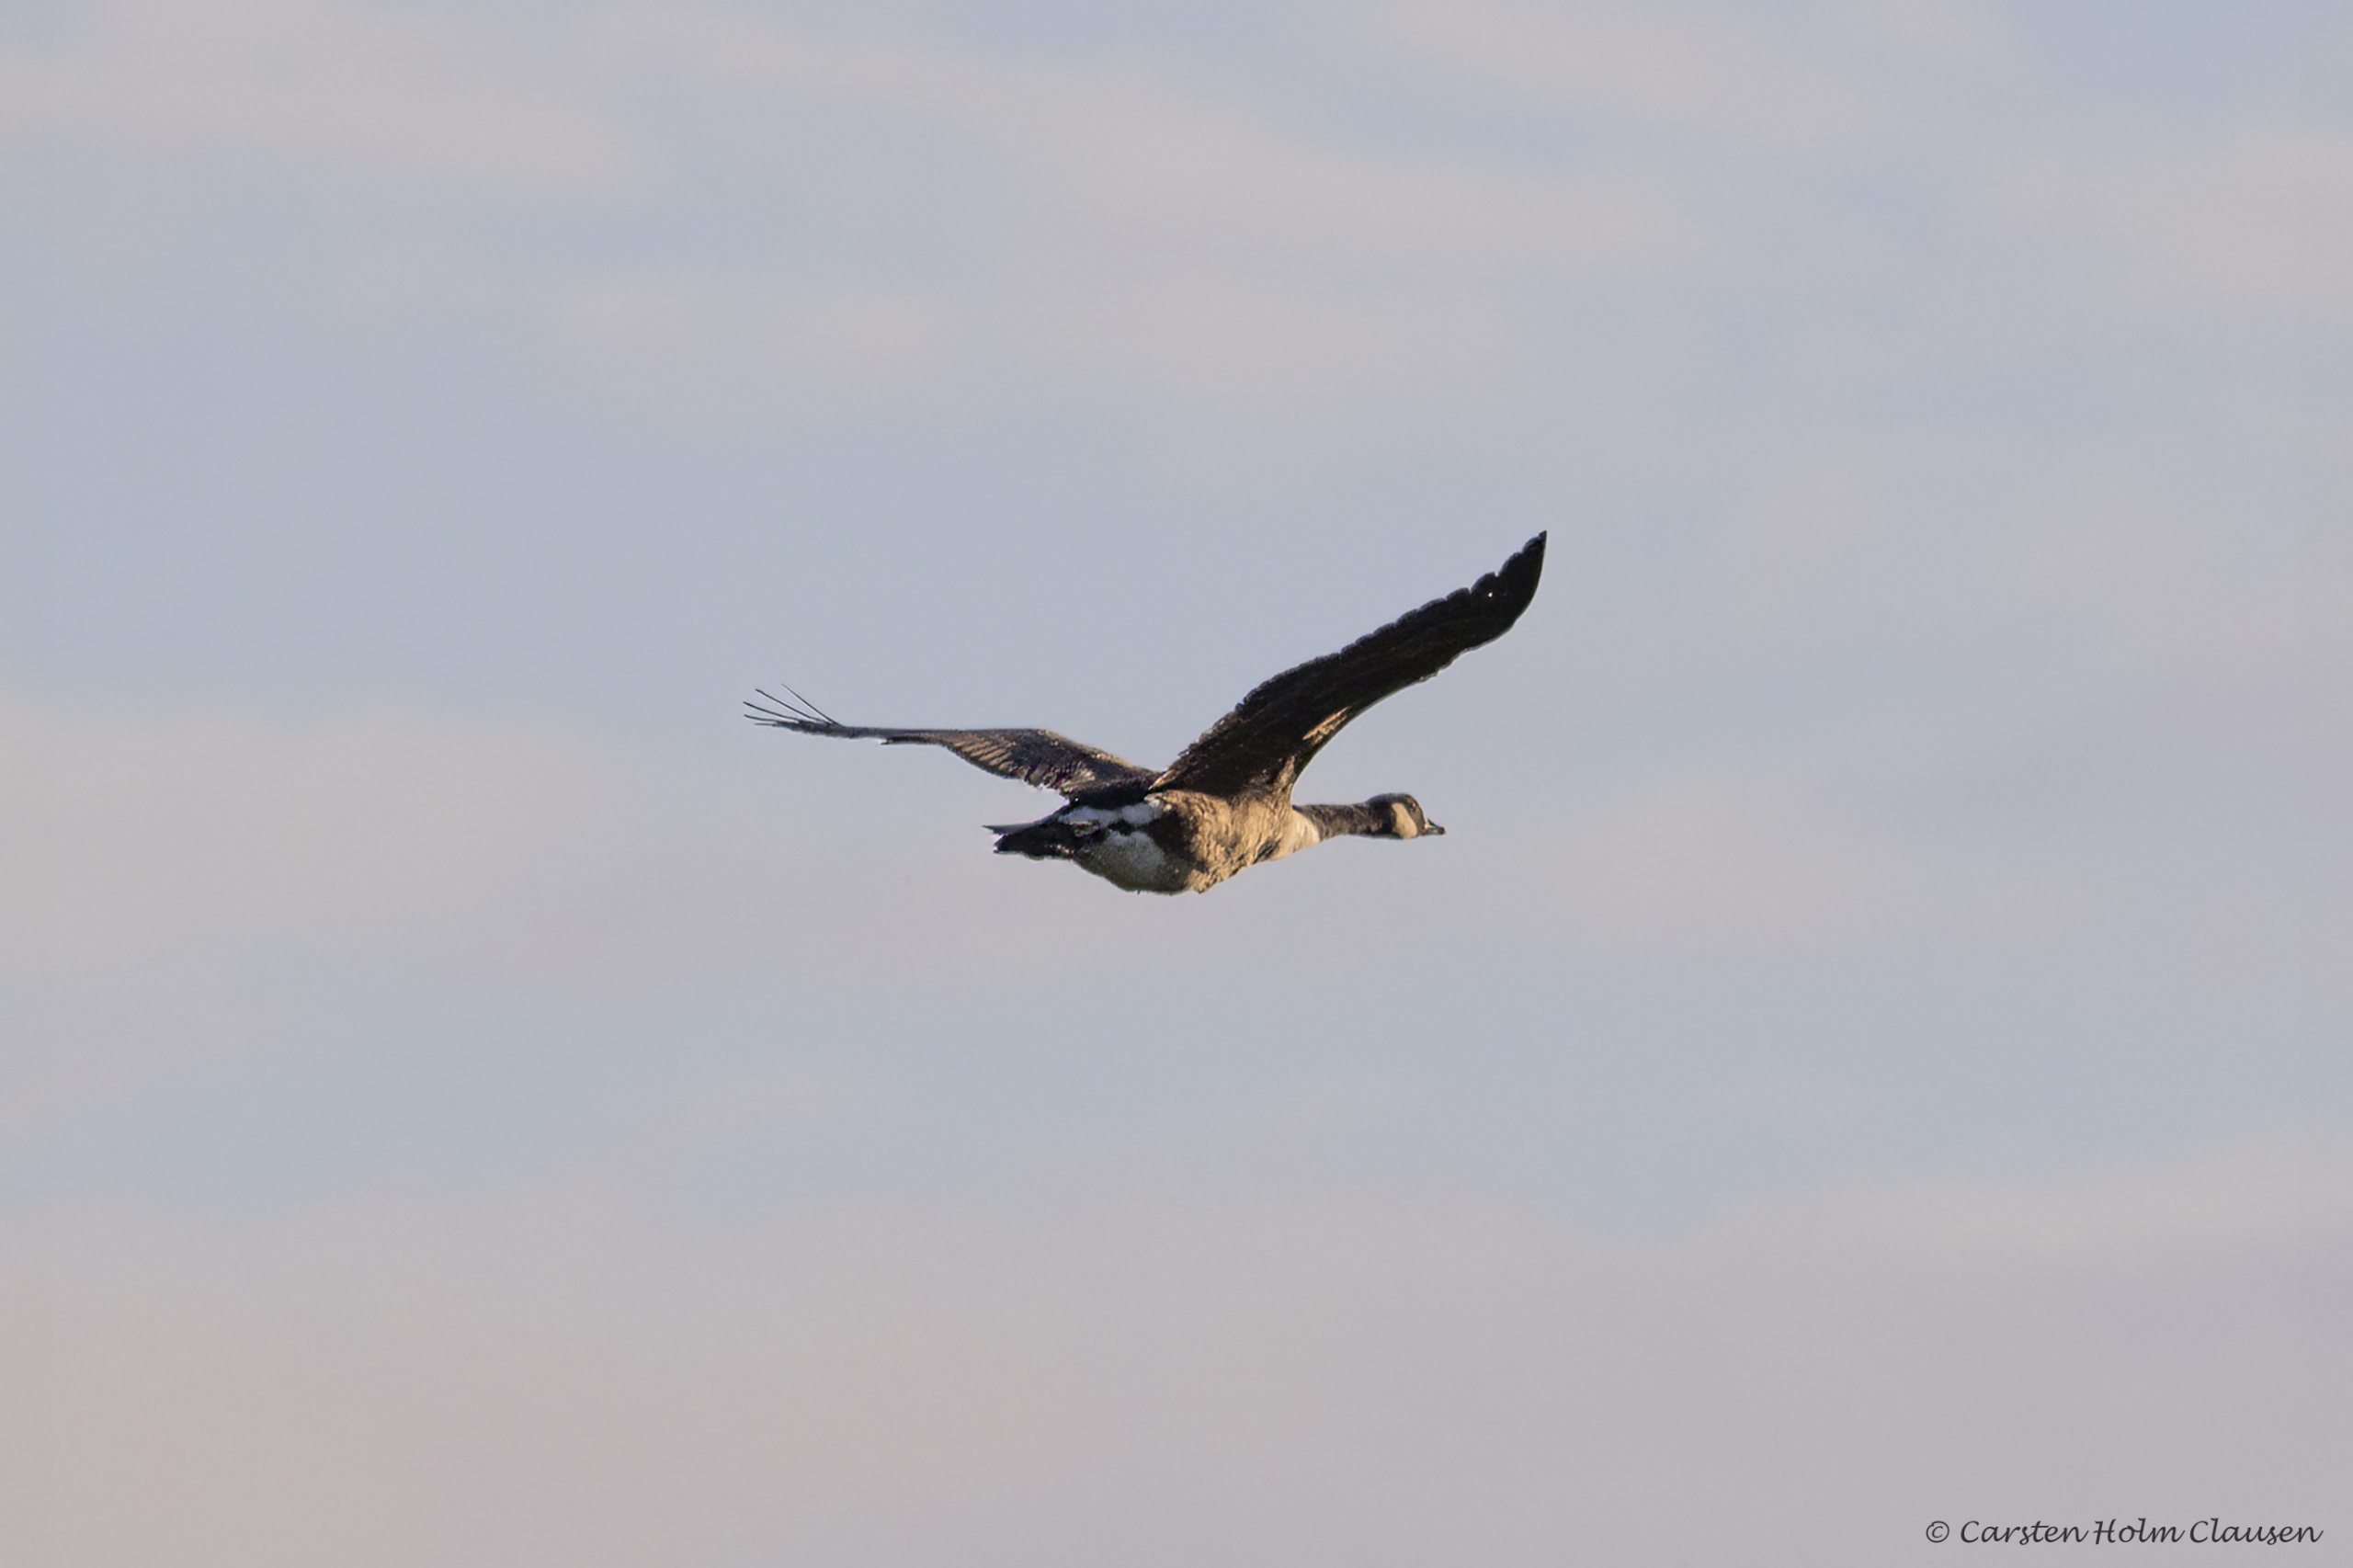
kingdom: Animalia
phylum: Chordata
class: Aves
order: Anseriformes
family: Anatidae
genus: Branta
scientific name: Branta canadensis
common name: Canadagås
